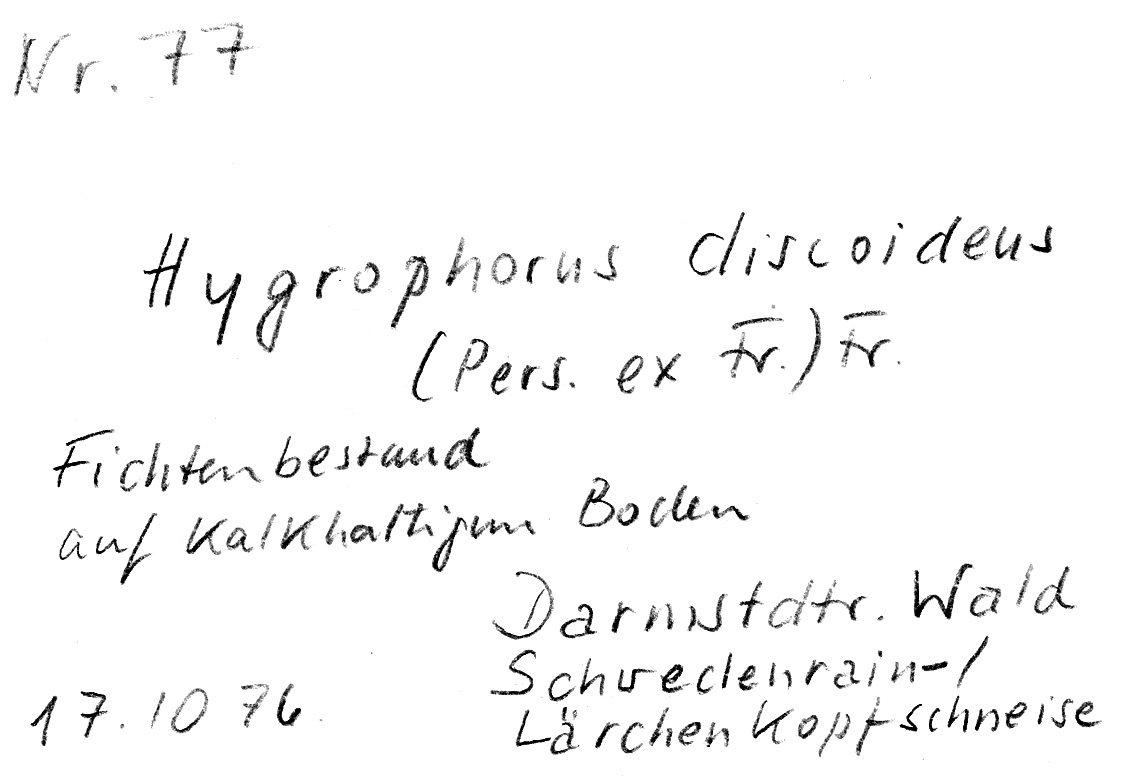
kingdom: Fungi
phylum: Basidiomycota
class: Agaricomycetes
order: Agaricales
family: Hygrophoraceae
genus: Hygrophorus
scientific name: Hygrophorus discoideus
